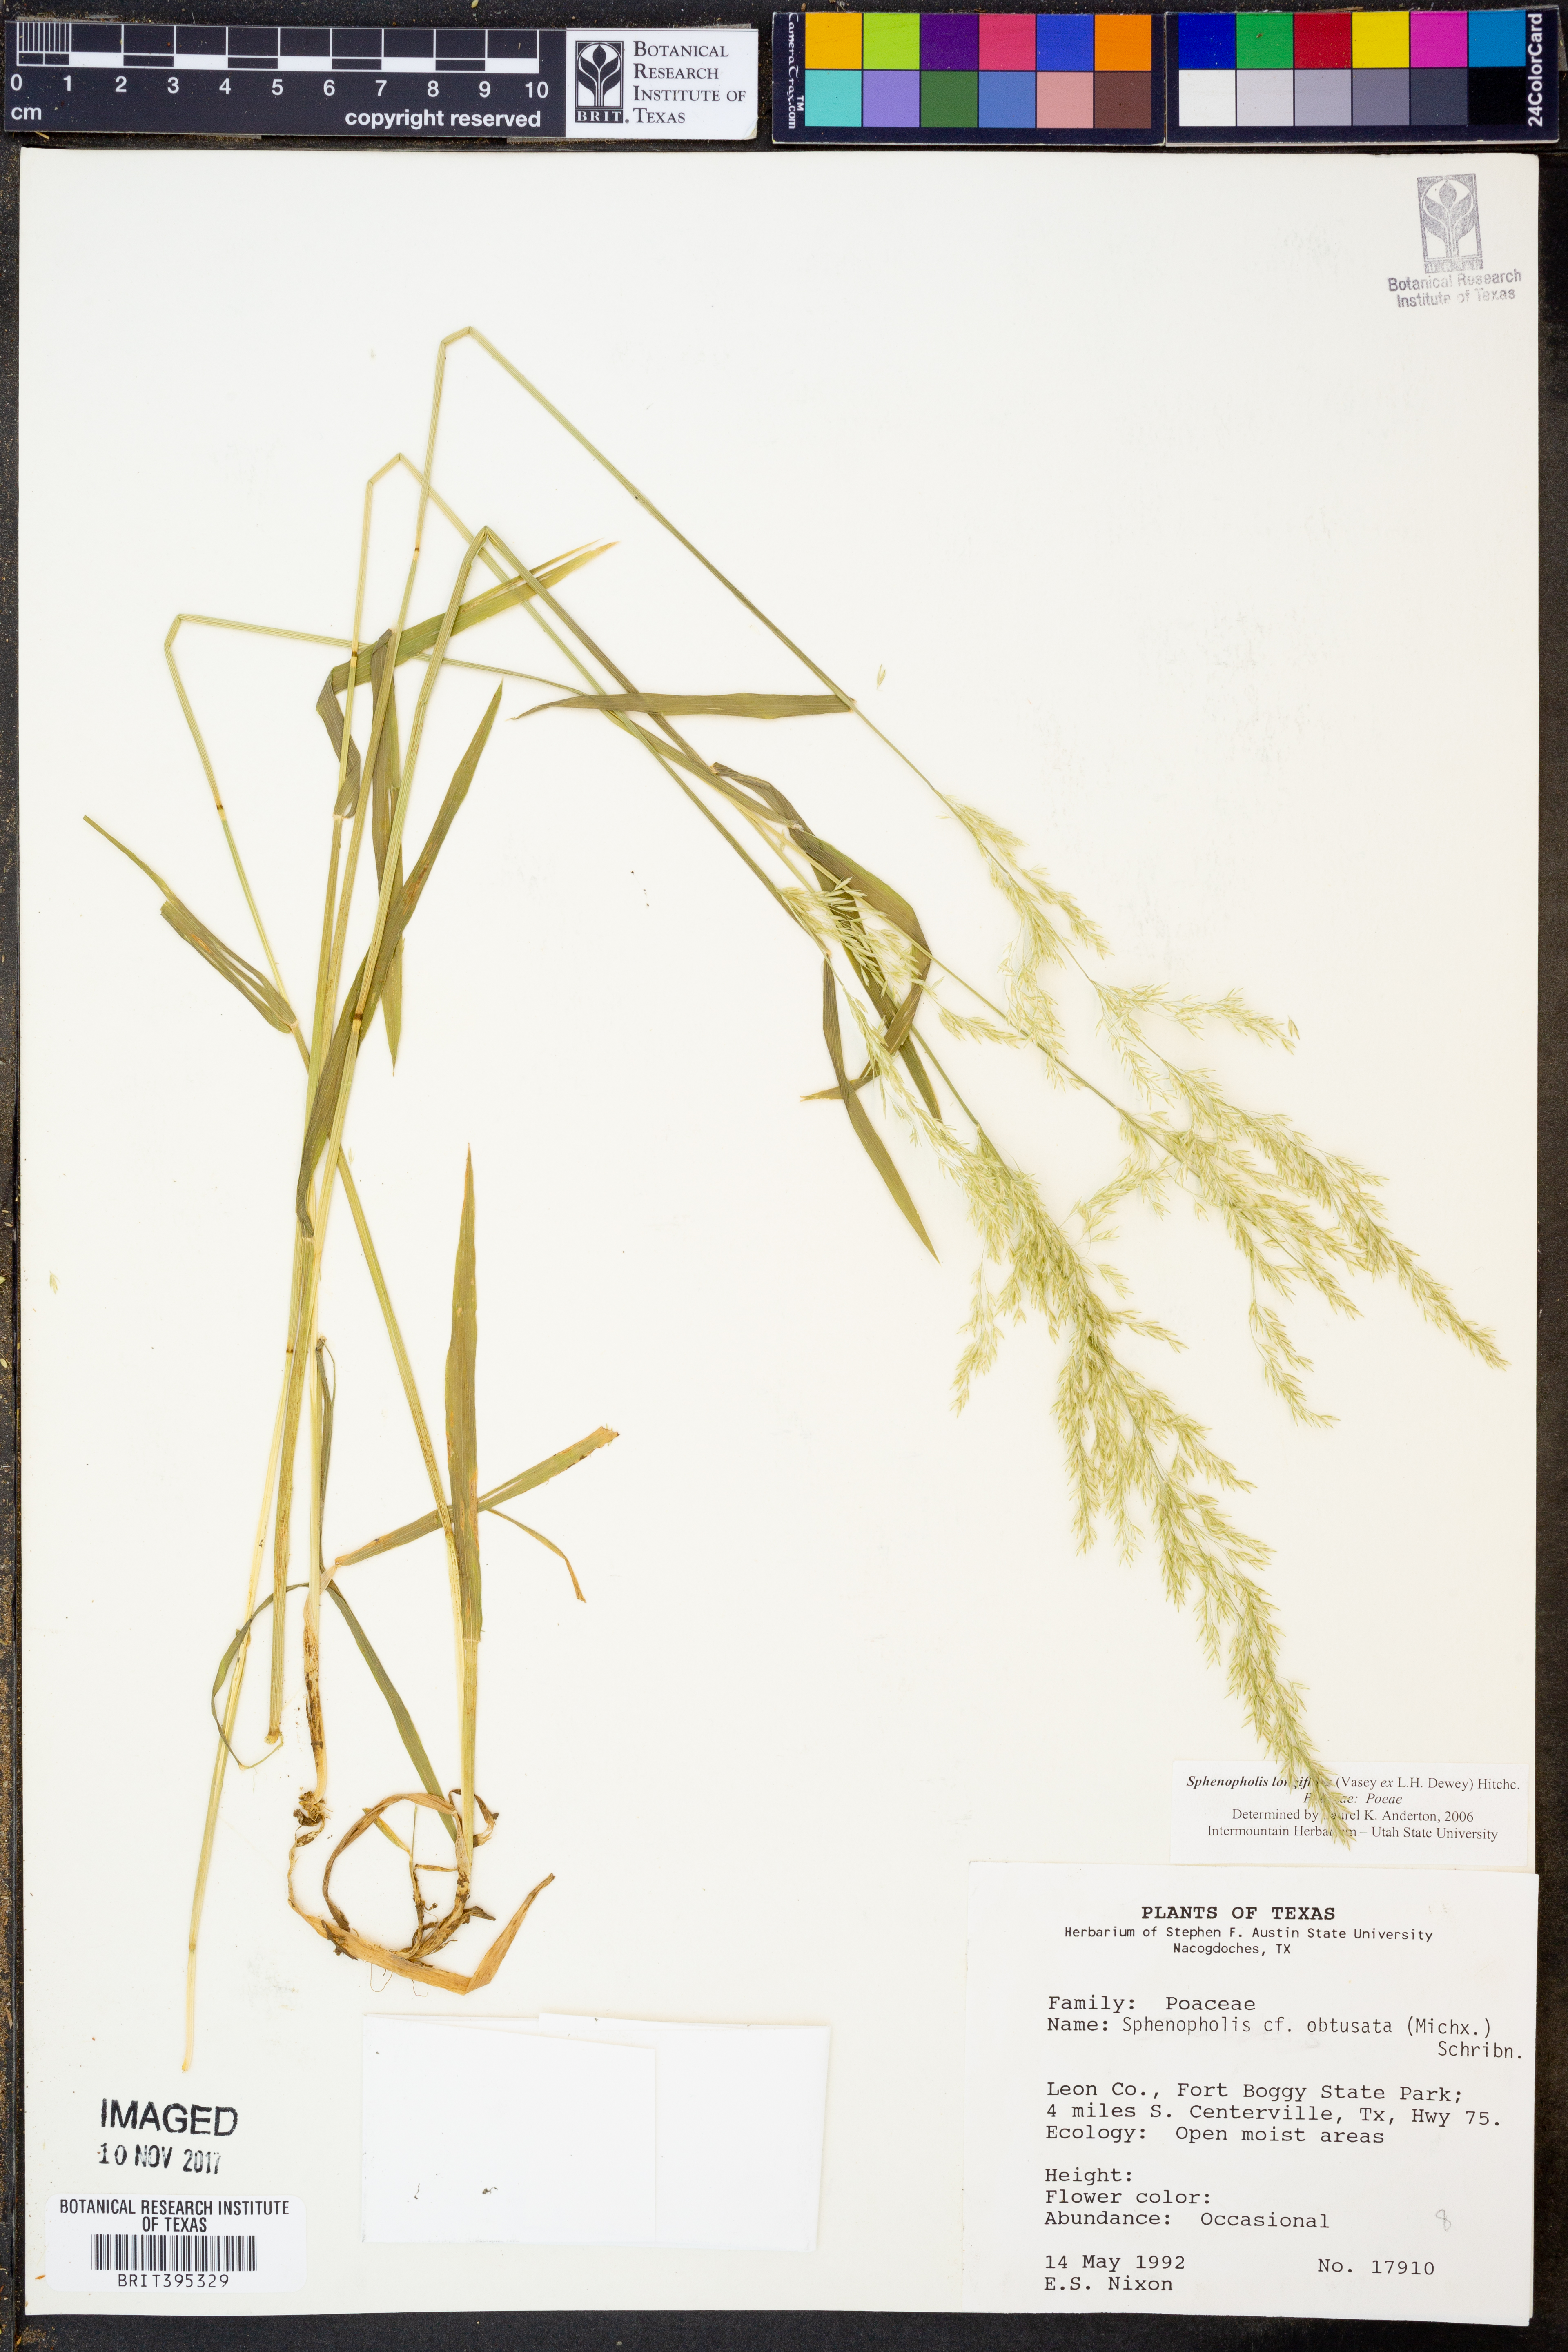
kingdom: Plantae
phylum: Tracheophyta
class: Liliopsida
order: Poales
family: Poaceae
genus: Sphenopholis
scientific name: Sphenopholis intermedia
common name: Intermediate eaton's grass
